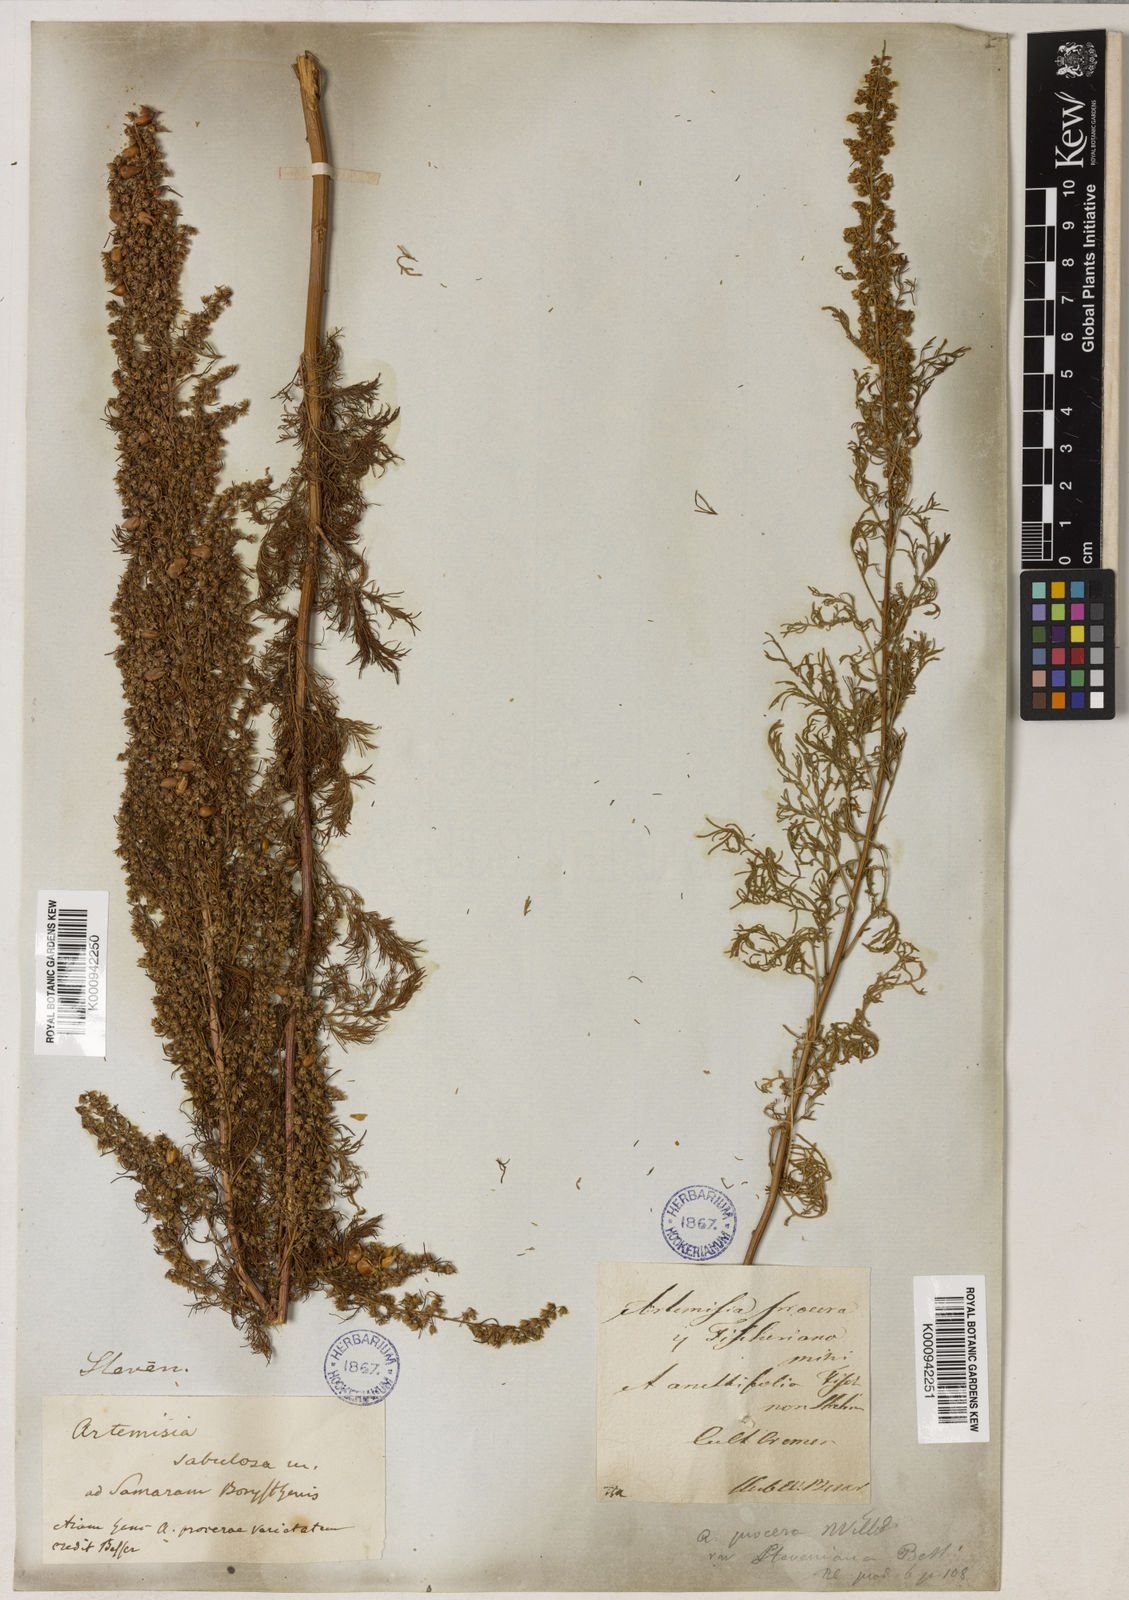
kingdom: Plantae
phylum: Tracheophyta
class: Magnoliopsida
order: Asterales
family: Asteraceae
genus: Artemisia
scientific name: Artemisia
